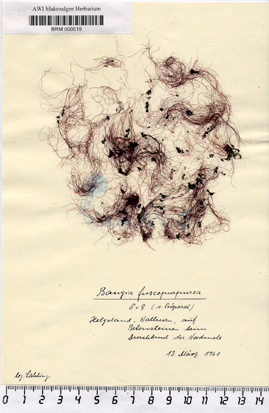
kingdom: Plantae
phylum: Rhodophyta
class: Bangiophyceae
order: Bangiales
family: Bangiaceae
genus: Bangia
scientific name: Bangia fuscopurpurea
